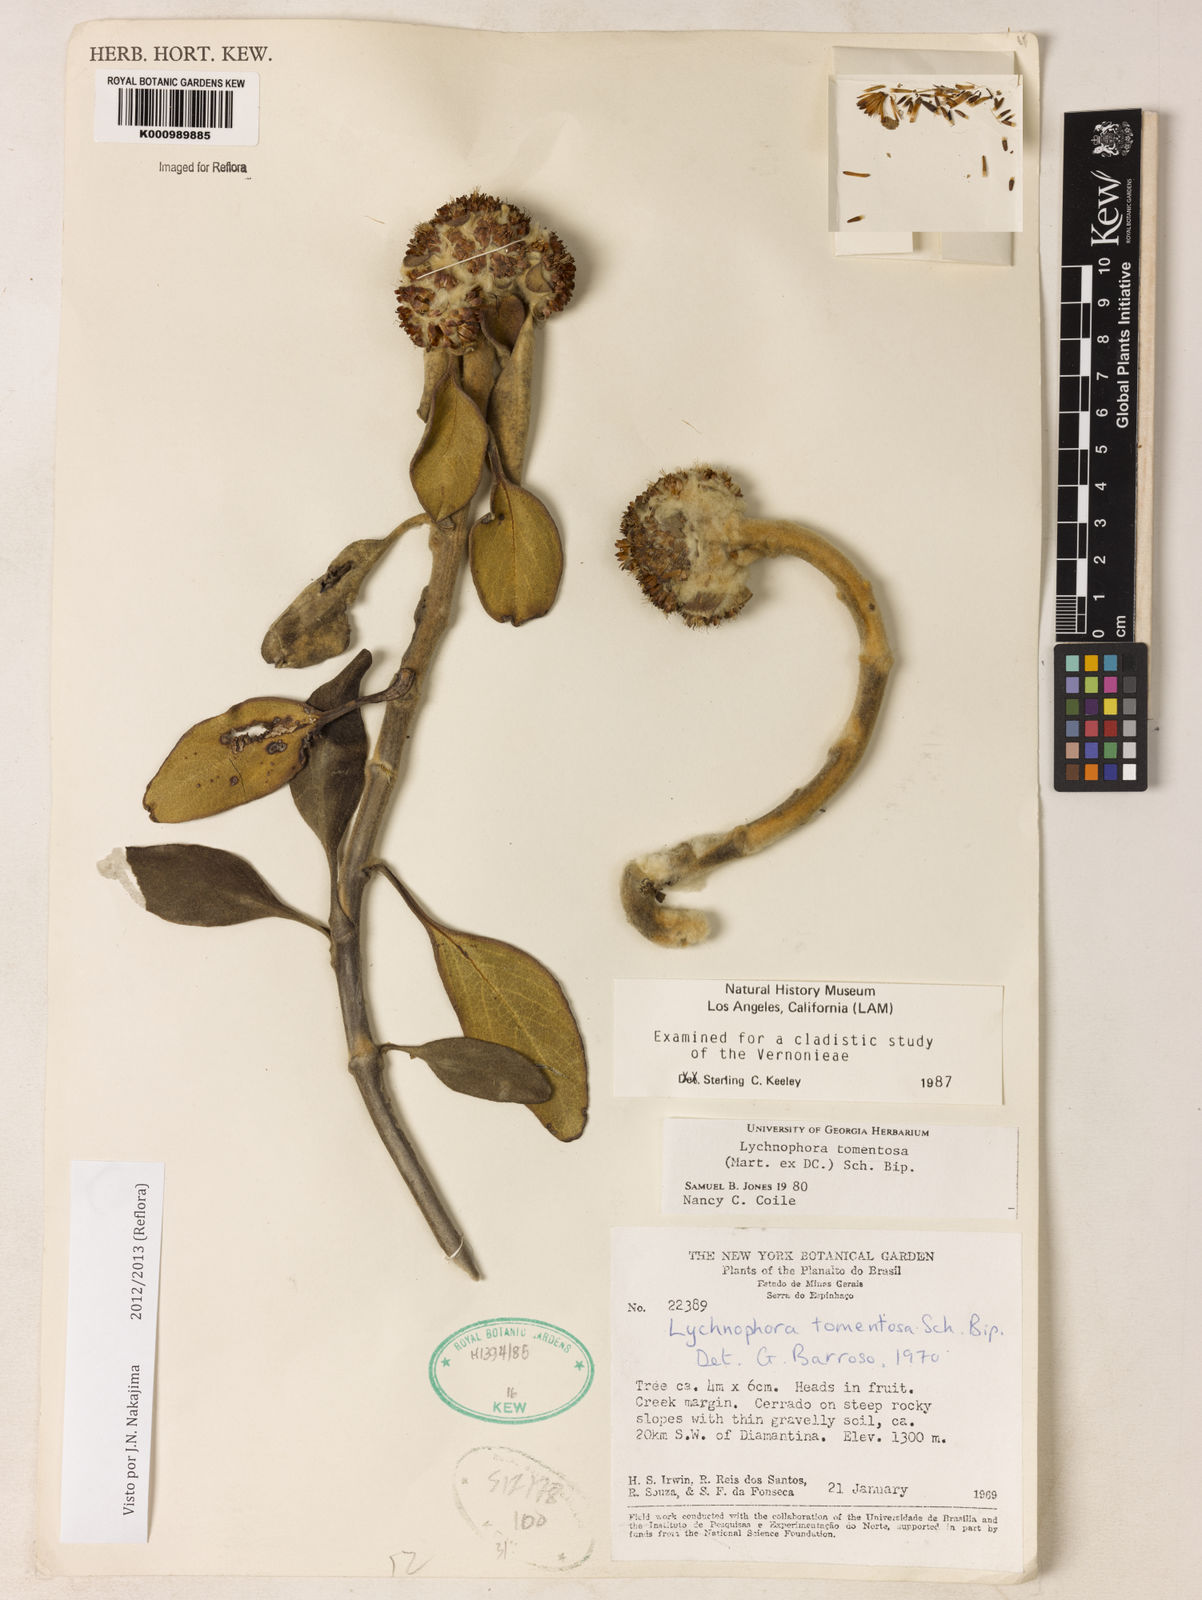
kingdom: Plantae
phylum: Tracheophyta
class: Magnoliopsida
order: Asterales
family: Asteraceae
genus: Lychnocephalus
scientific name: Lychnocephalus tomentosus
